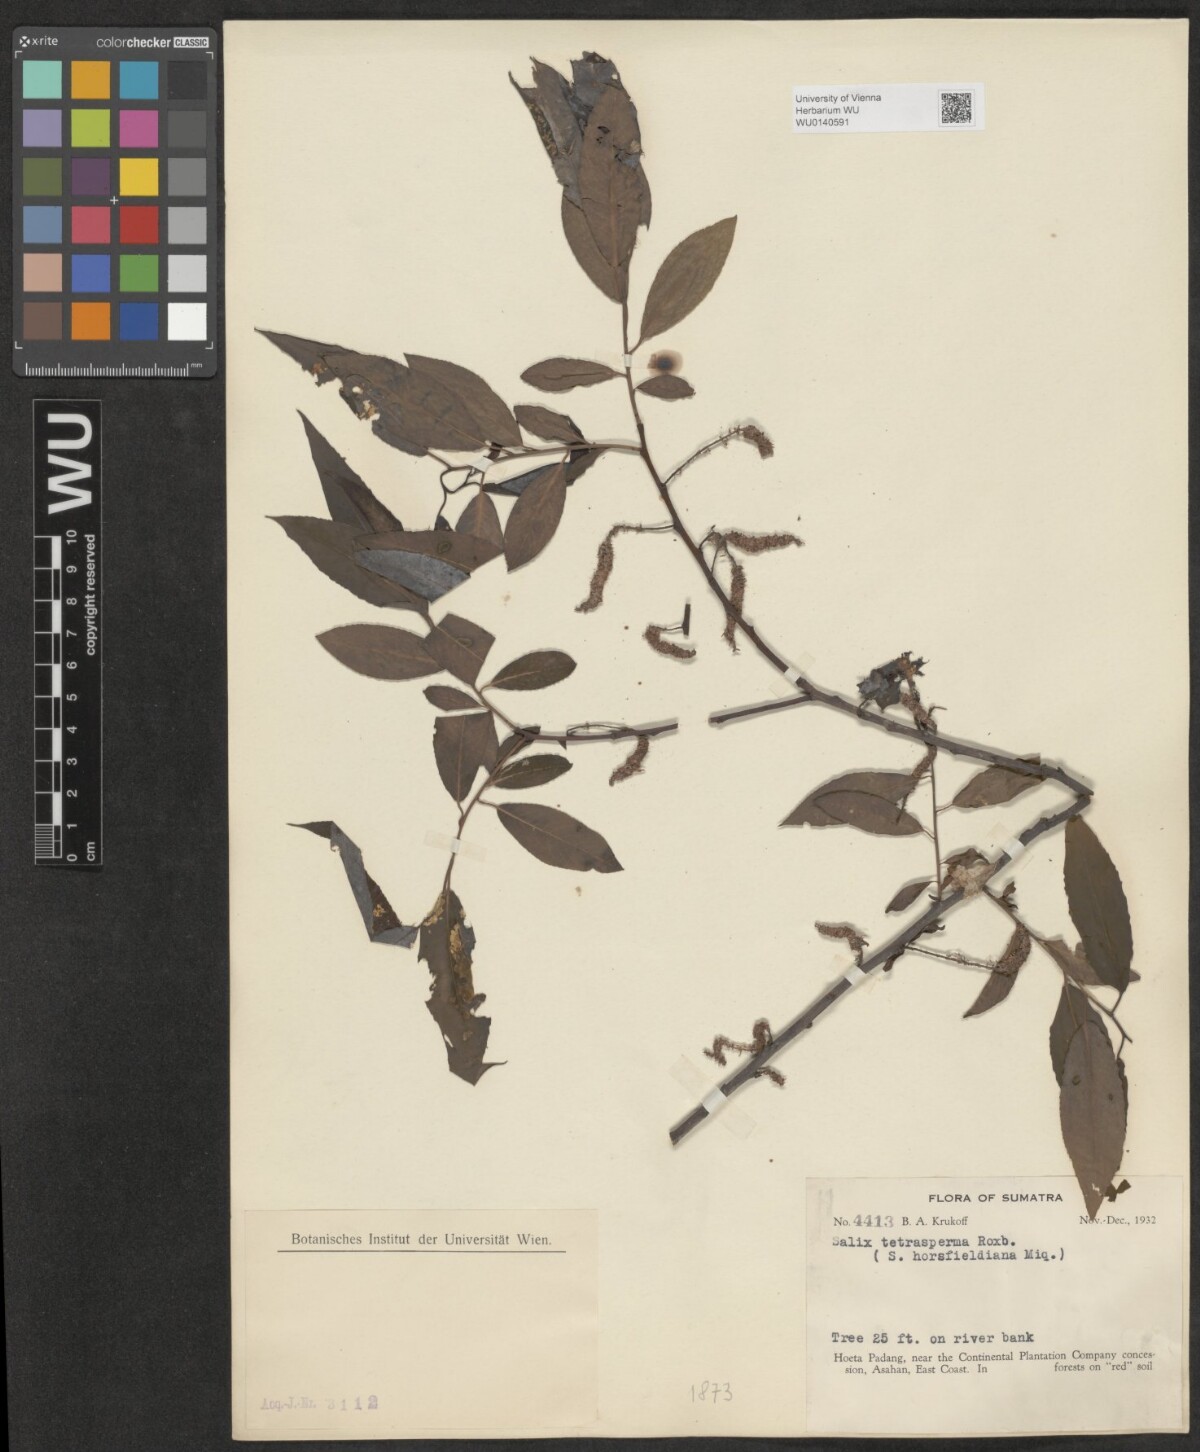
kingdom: Plantae
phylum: Tracheophyta
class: Magnoliopsida
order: Malpighiales
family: Salicaceae
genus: Salix
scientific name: Salix tetrasperma
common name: Indian willow
